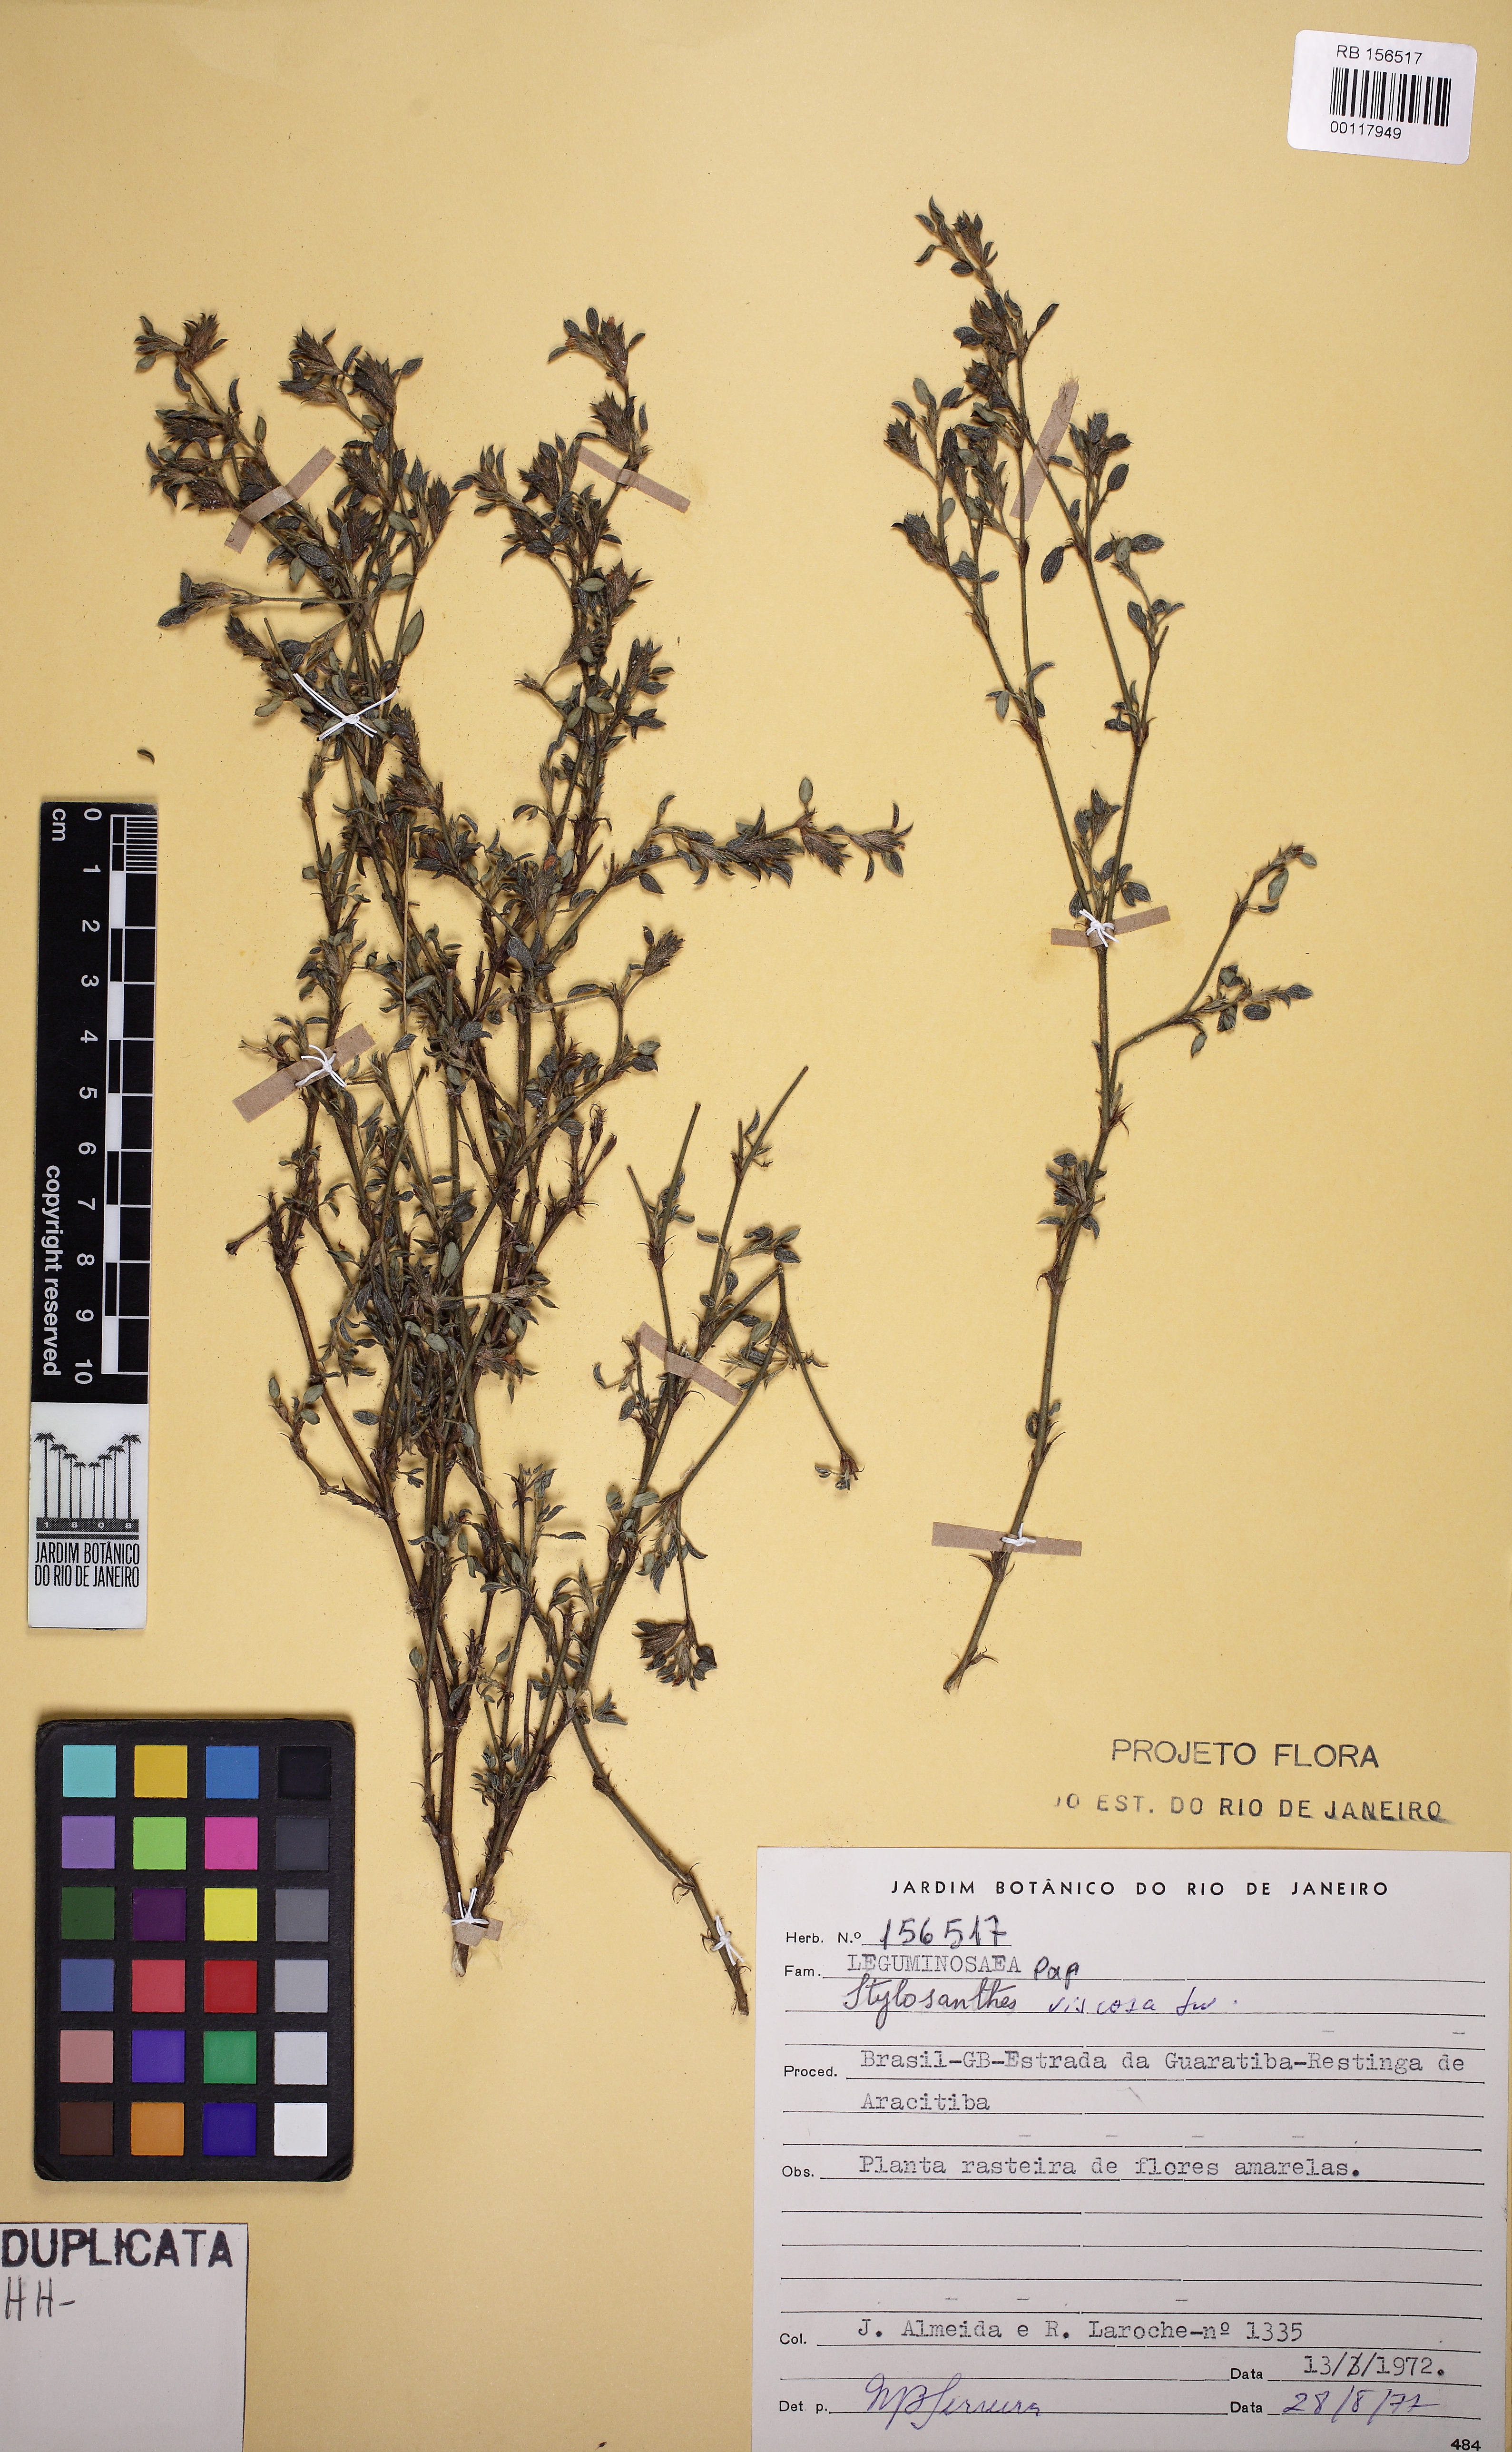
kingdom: Plantae
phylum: Tracheophyta
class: Magnoliopsida
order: Fabales
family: Fabaceae
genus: Stylosanthes
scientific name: Stylosanthes viscosa
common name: Viscid pencil-flower
